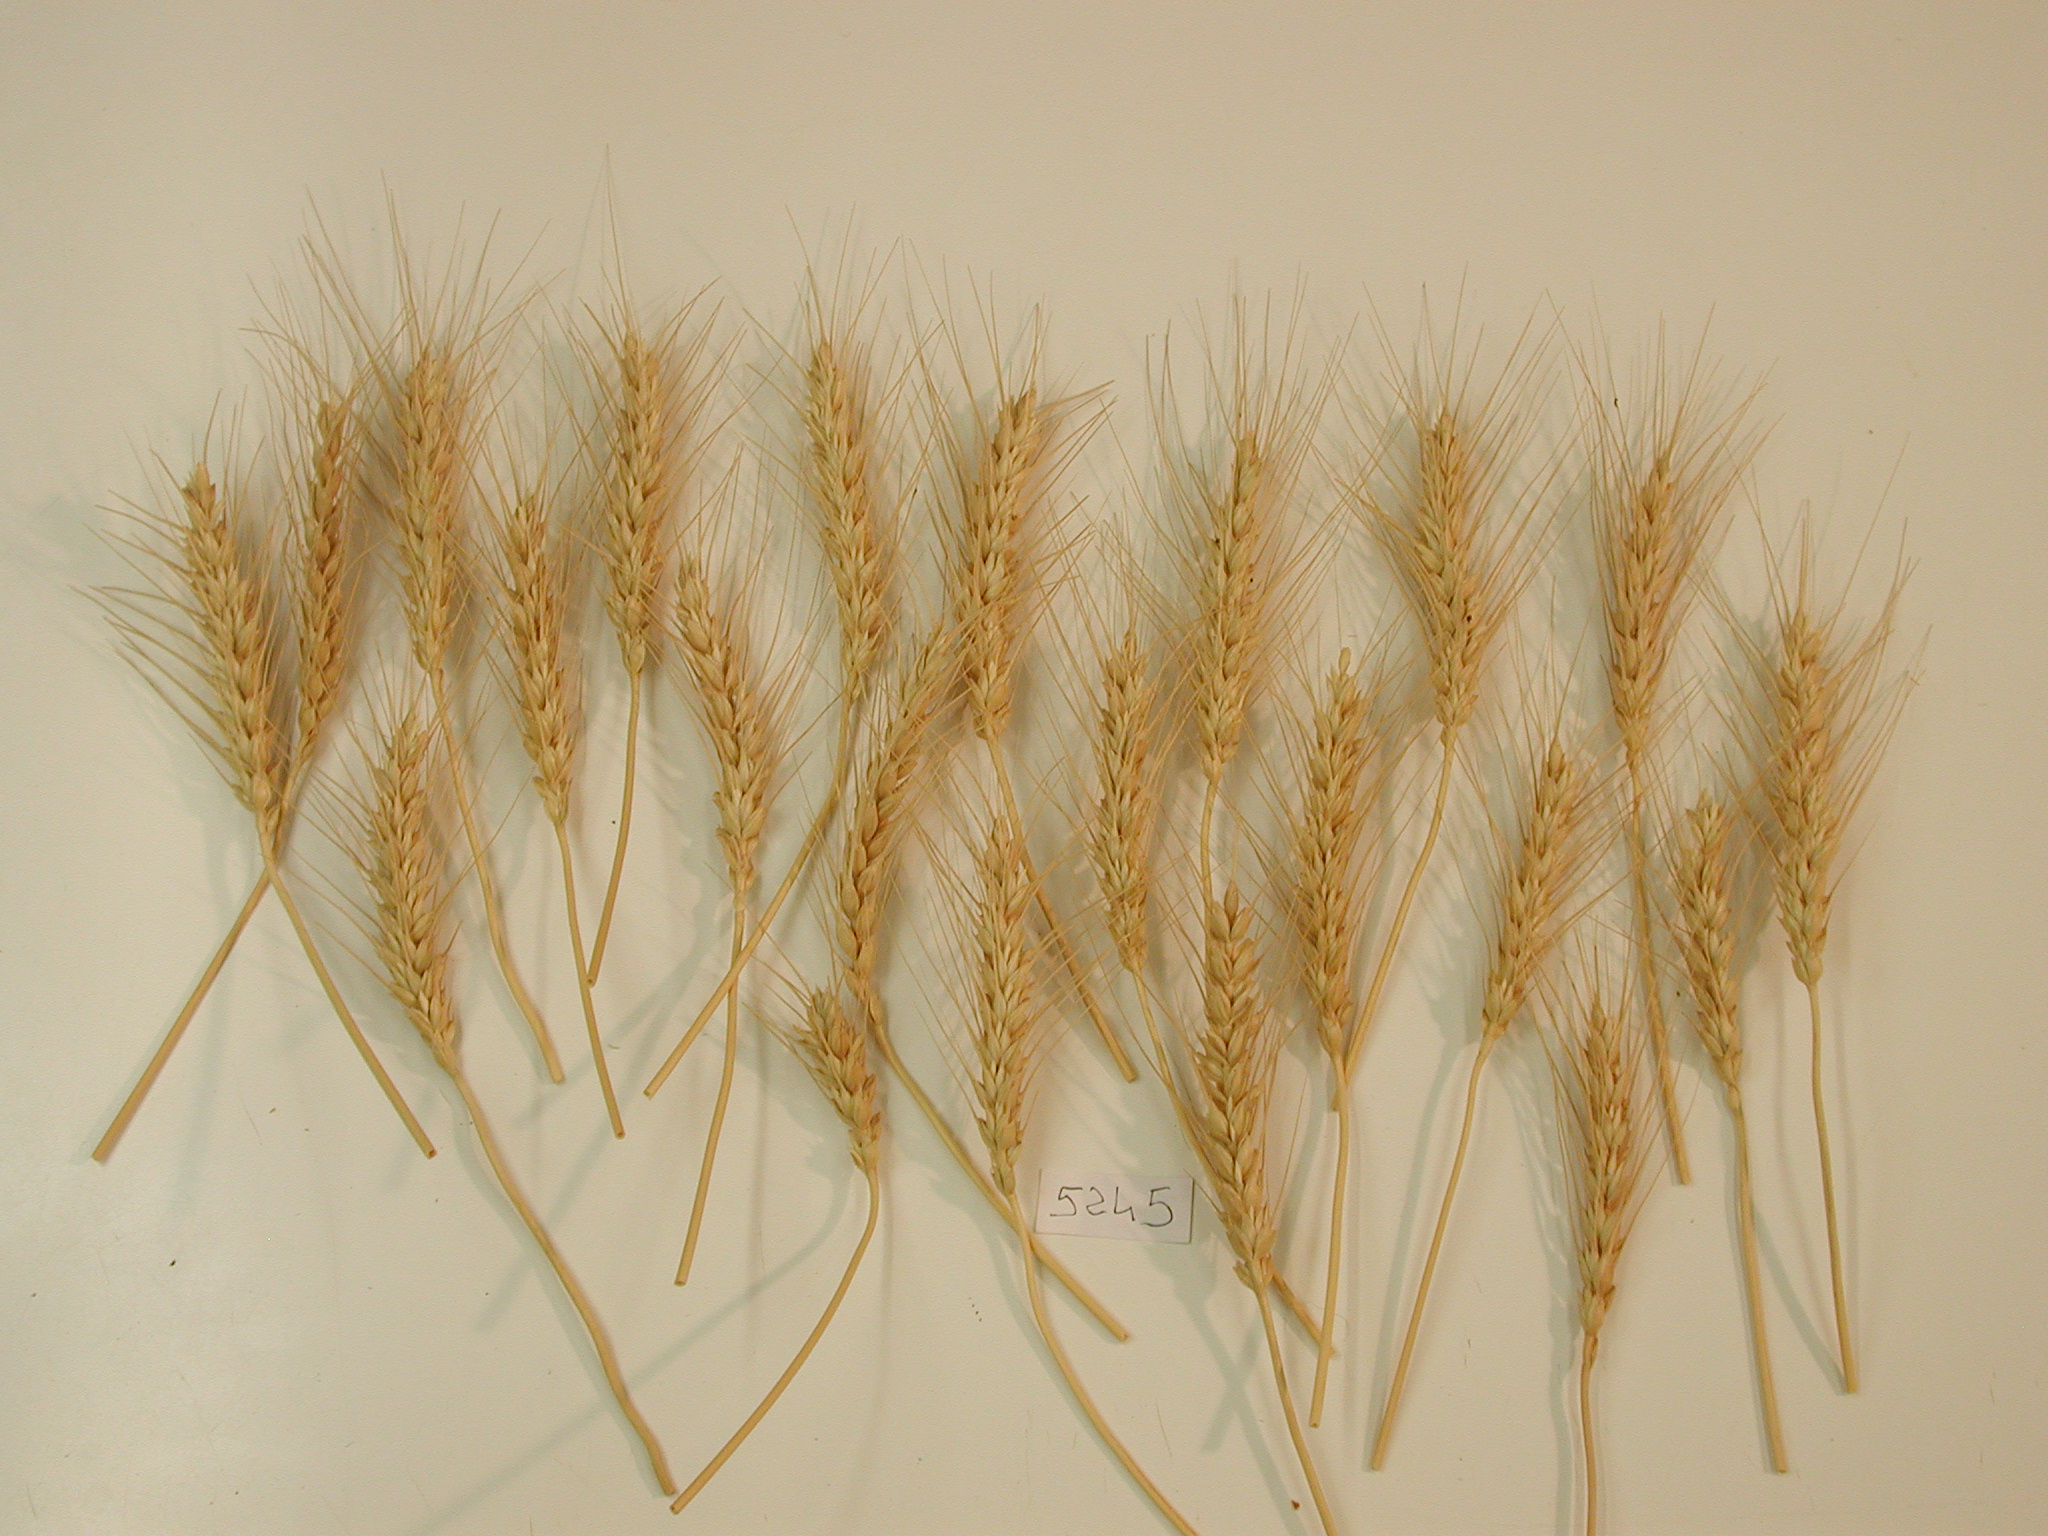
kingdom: Plantae
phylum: Tracheophyta
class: Liliopsida
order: Poales
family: Poaceae
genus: Triticum
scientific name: Triticum turgidum
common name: Wheat
